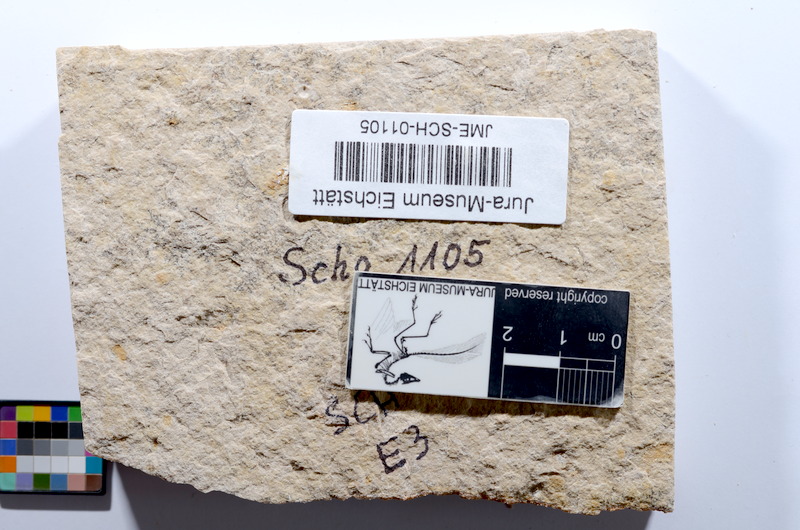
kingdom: Animalia
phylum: Chordata
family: Ascalaboidae
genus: Tharsis
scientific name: Tharsis dubius
